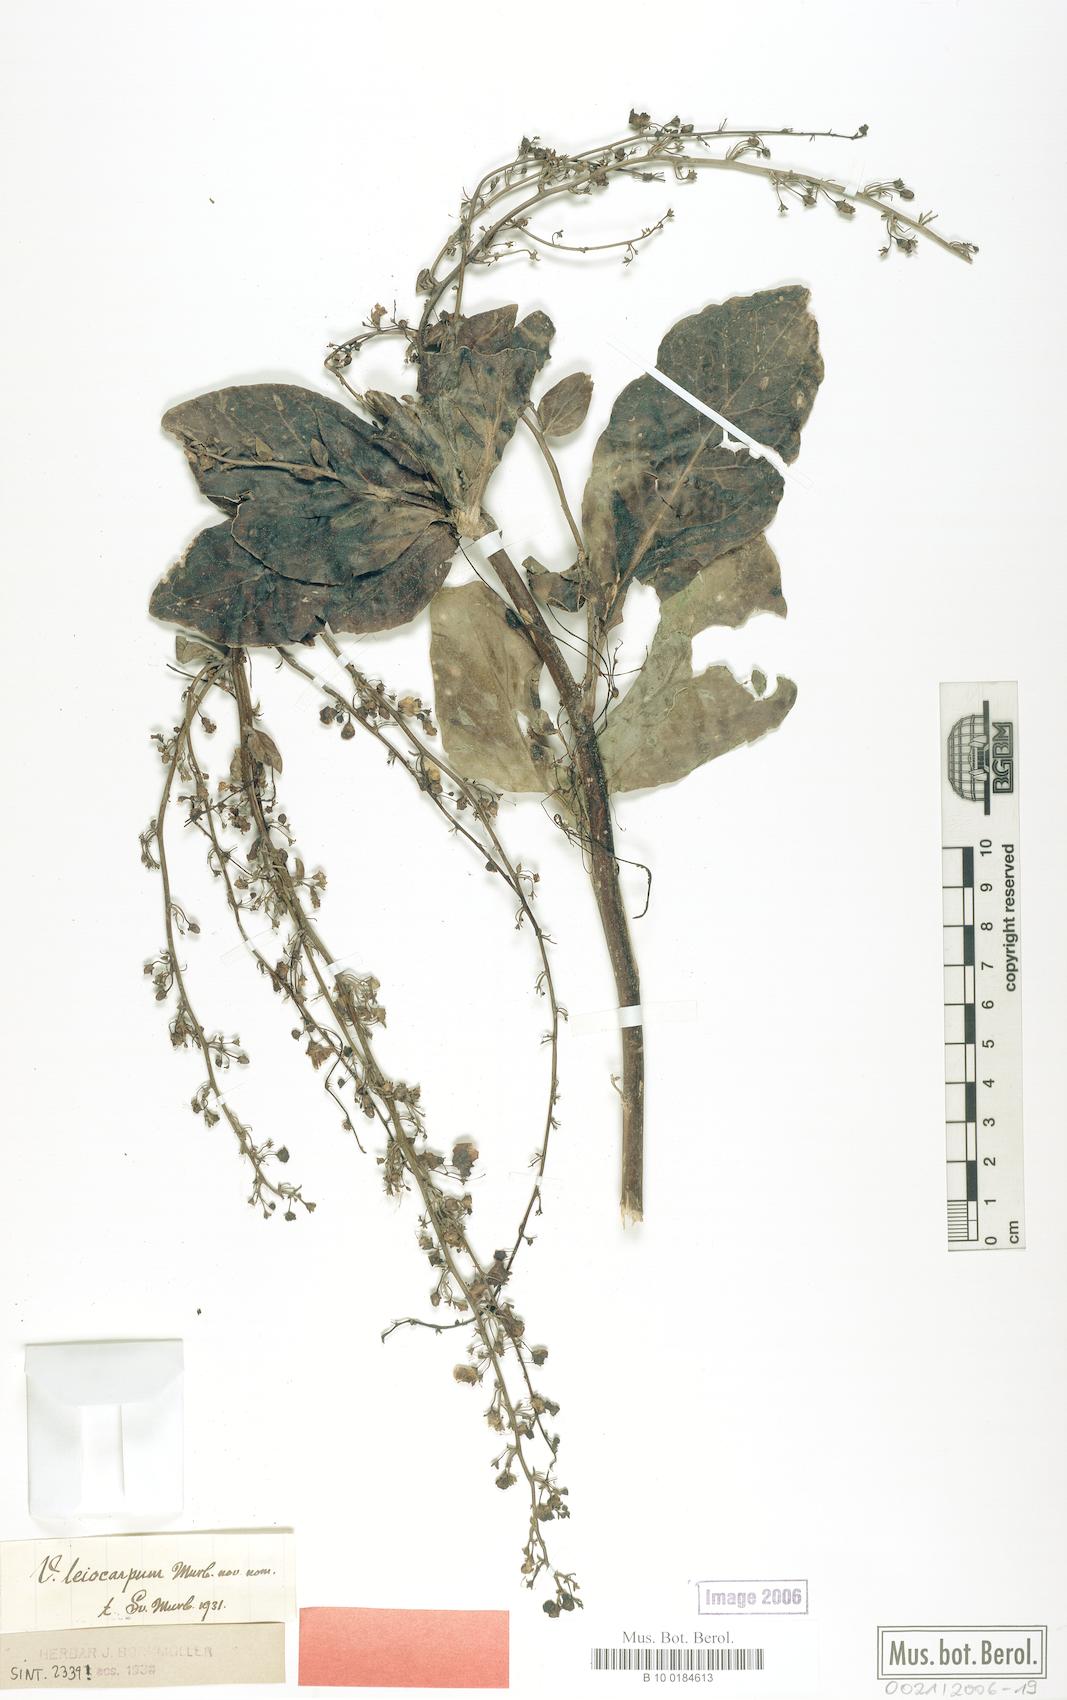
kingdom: Plantae
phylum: Tracheophyta
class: Magnoliopsida
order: Lamiales
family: Scrophulariaceae
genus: Verbascum
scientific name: Verbascum leiocarpum
